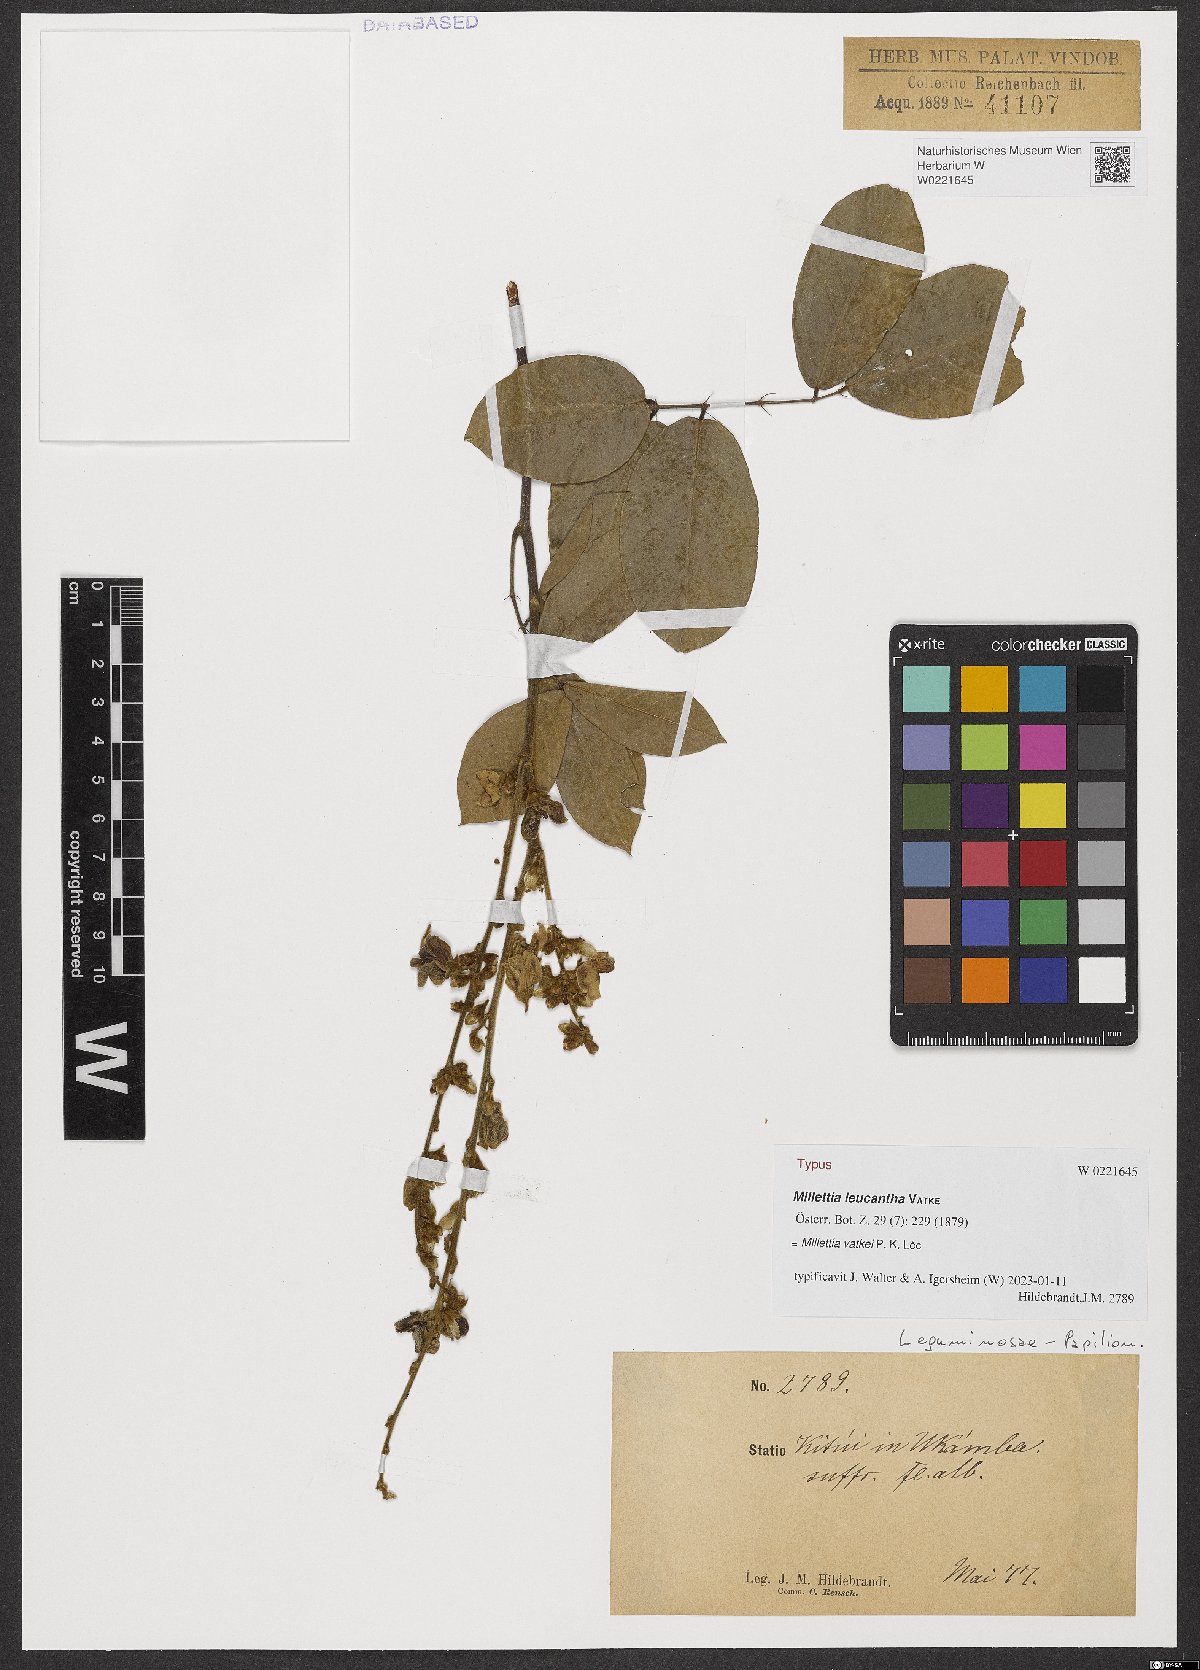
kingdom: Plantae
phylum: Tracheophyta
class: Magnoliopsida
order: Fabales
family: Fabaceae
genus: Millettia
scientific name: Millettia vatkei
